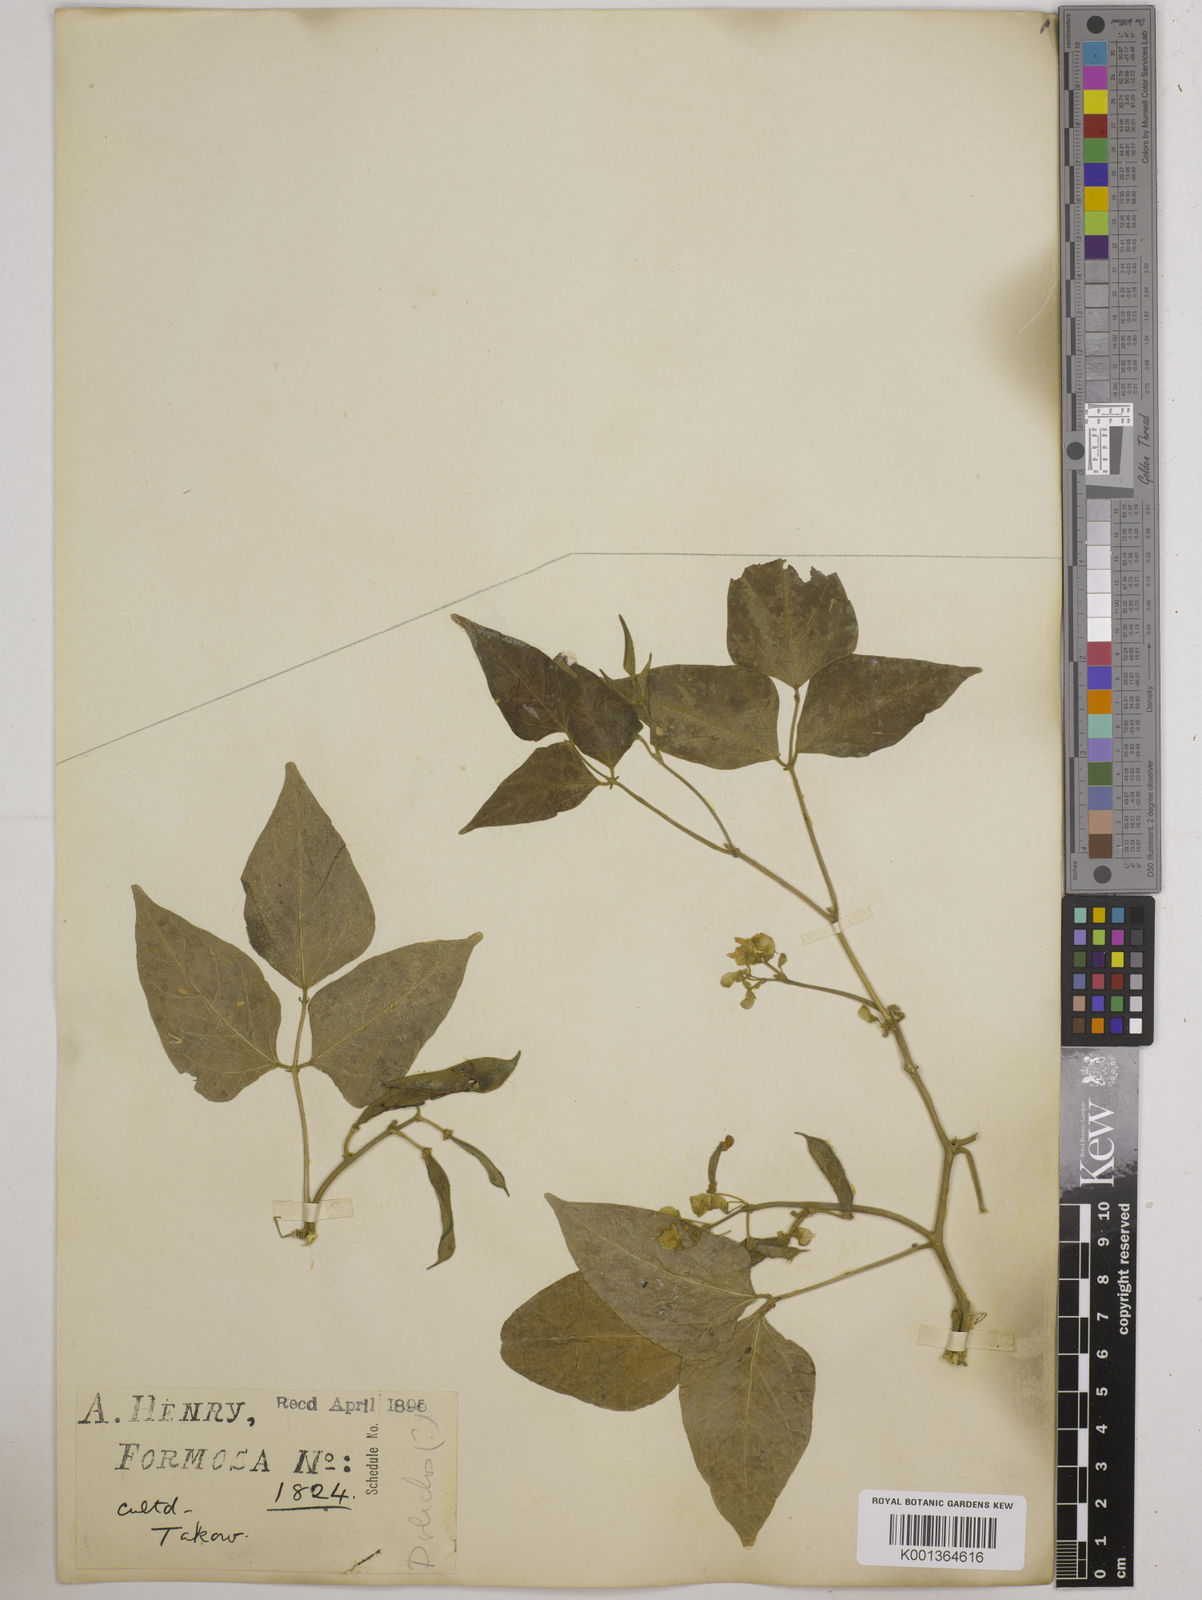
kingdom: Plantae
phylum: Tracheophyta
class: Magnoliopsida
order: Fabales
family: Fabaceae
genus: Phaseolus
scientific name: Phaseolus lunatus
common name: Sieva bean
